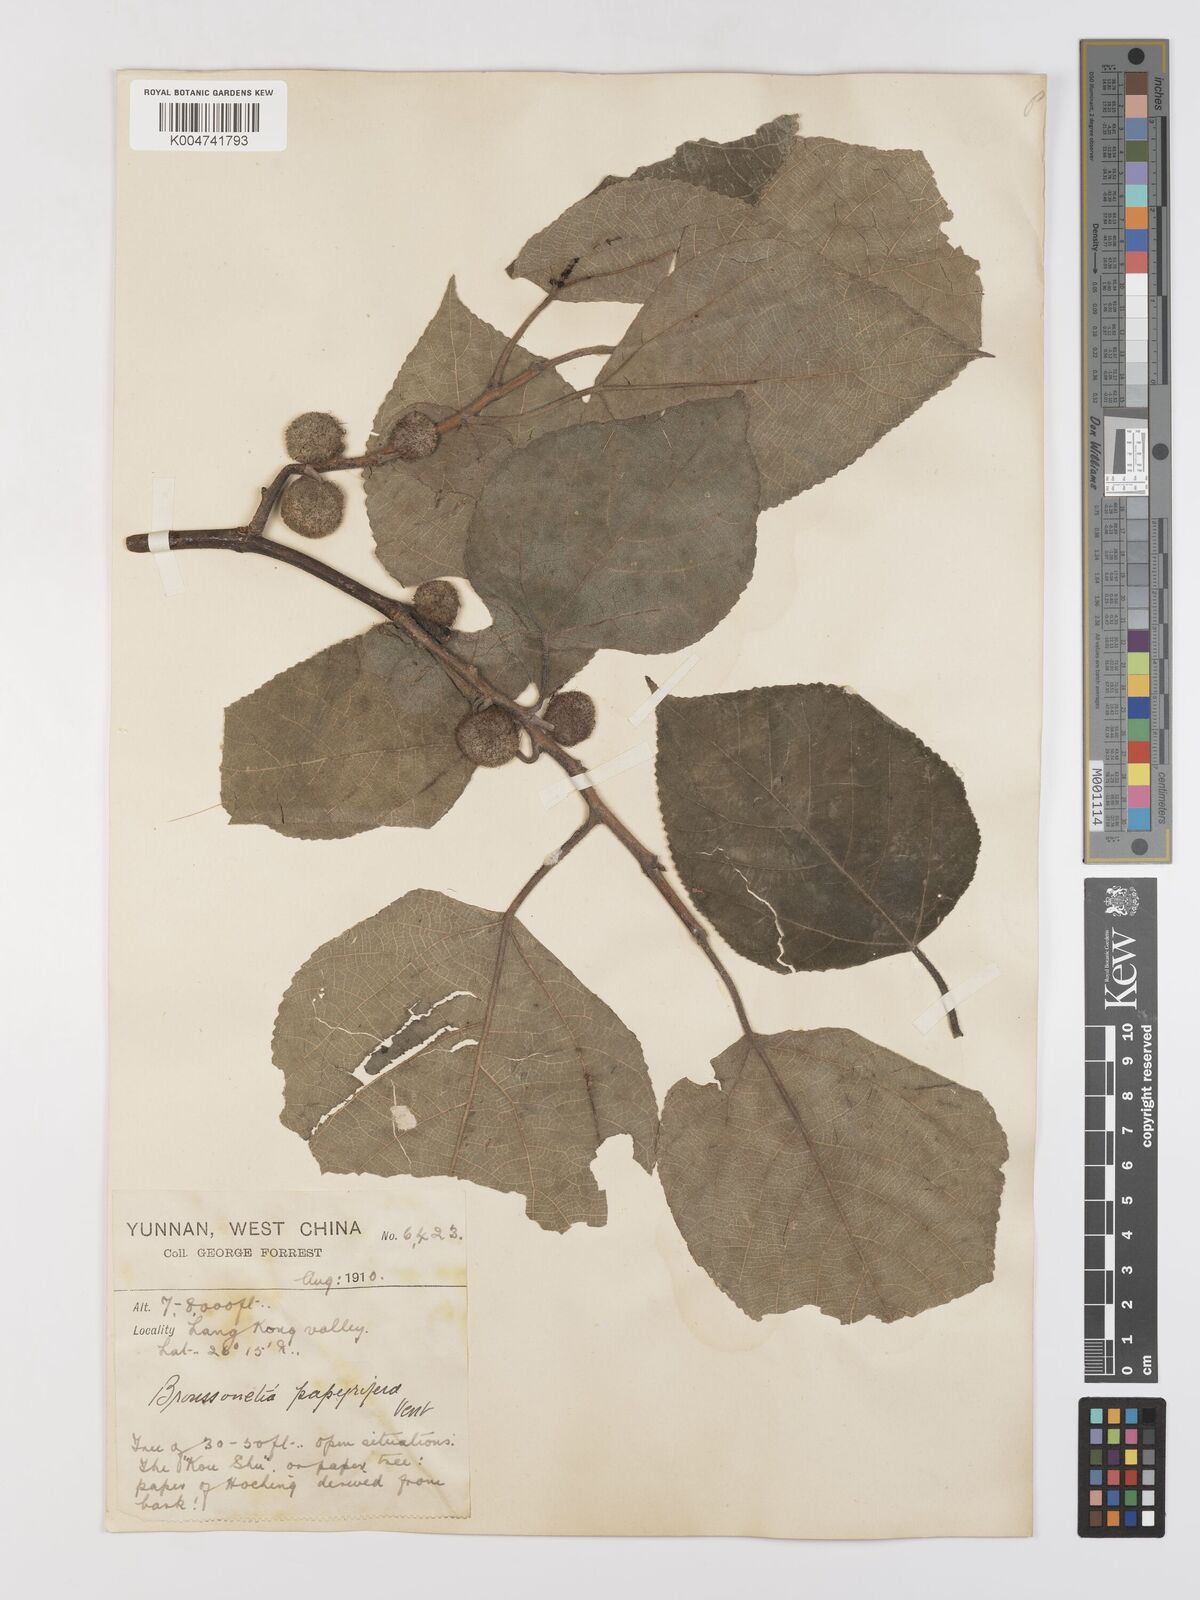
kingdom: Plantae
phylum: Tracheophyta
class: Magnoliopsida
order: Rosales
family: Moraceae
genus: Broussonetia
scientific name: Broussonetia papyrifera
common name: Paper mulberry
